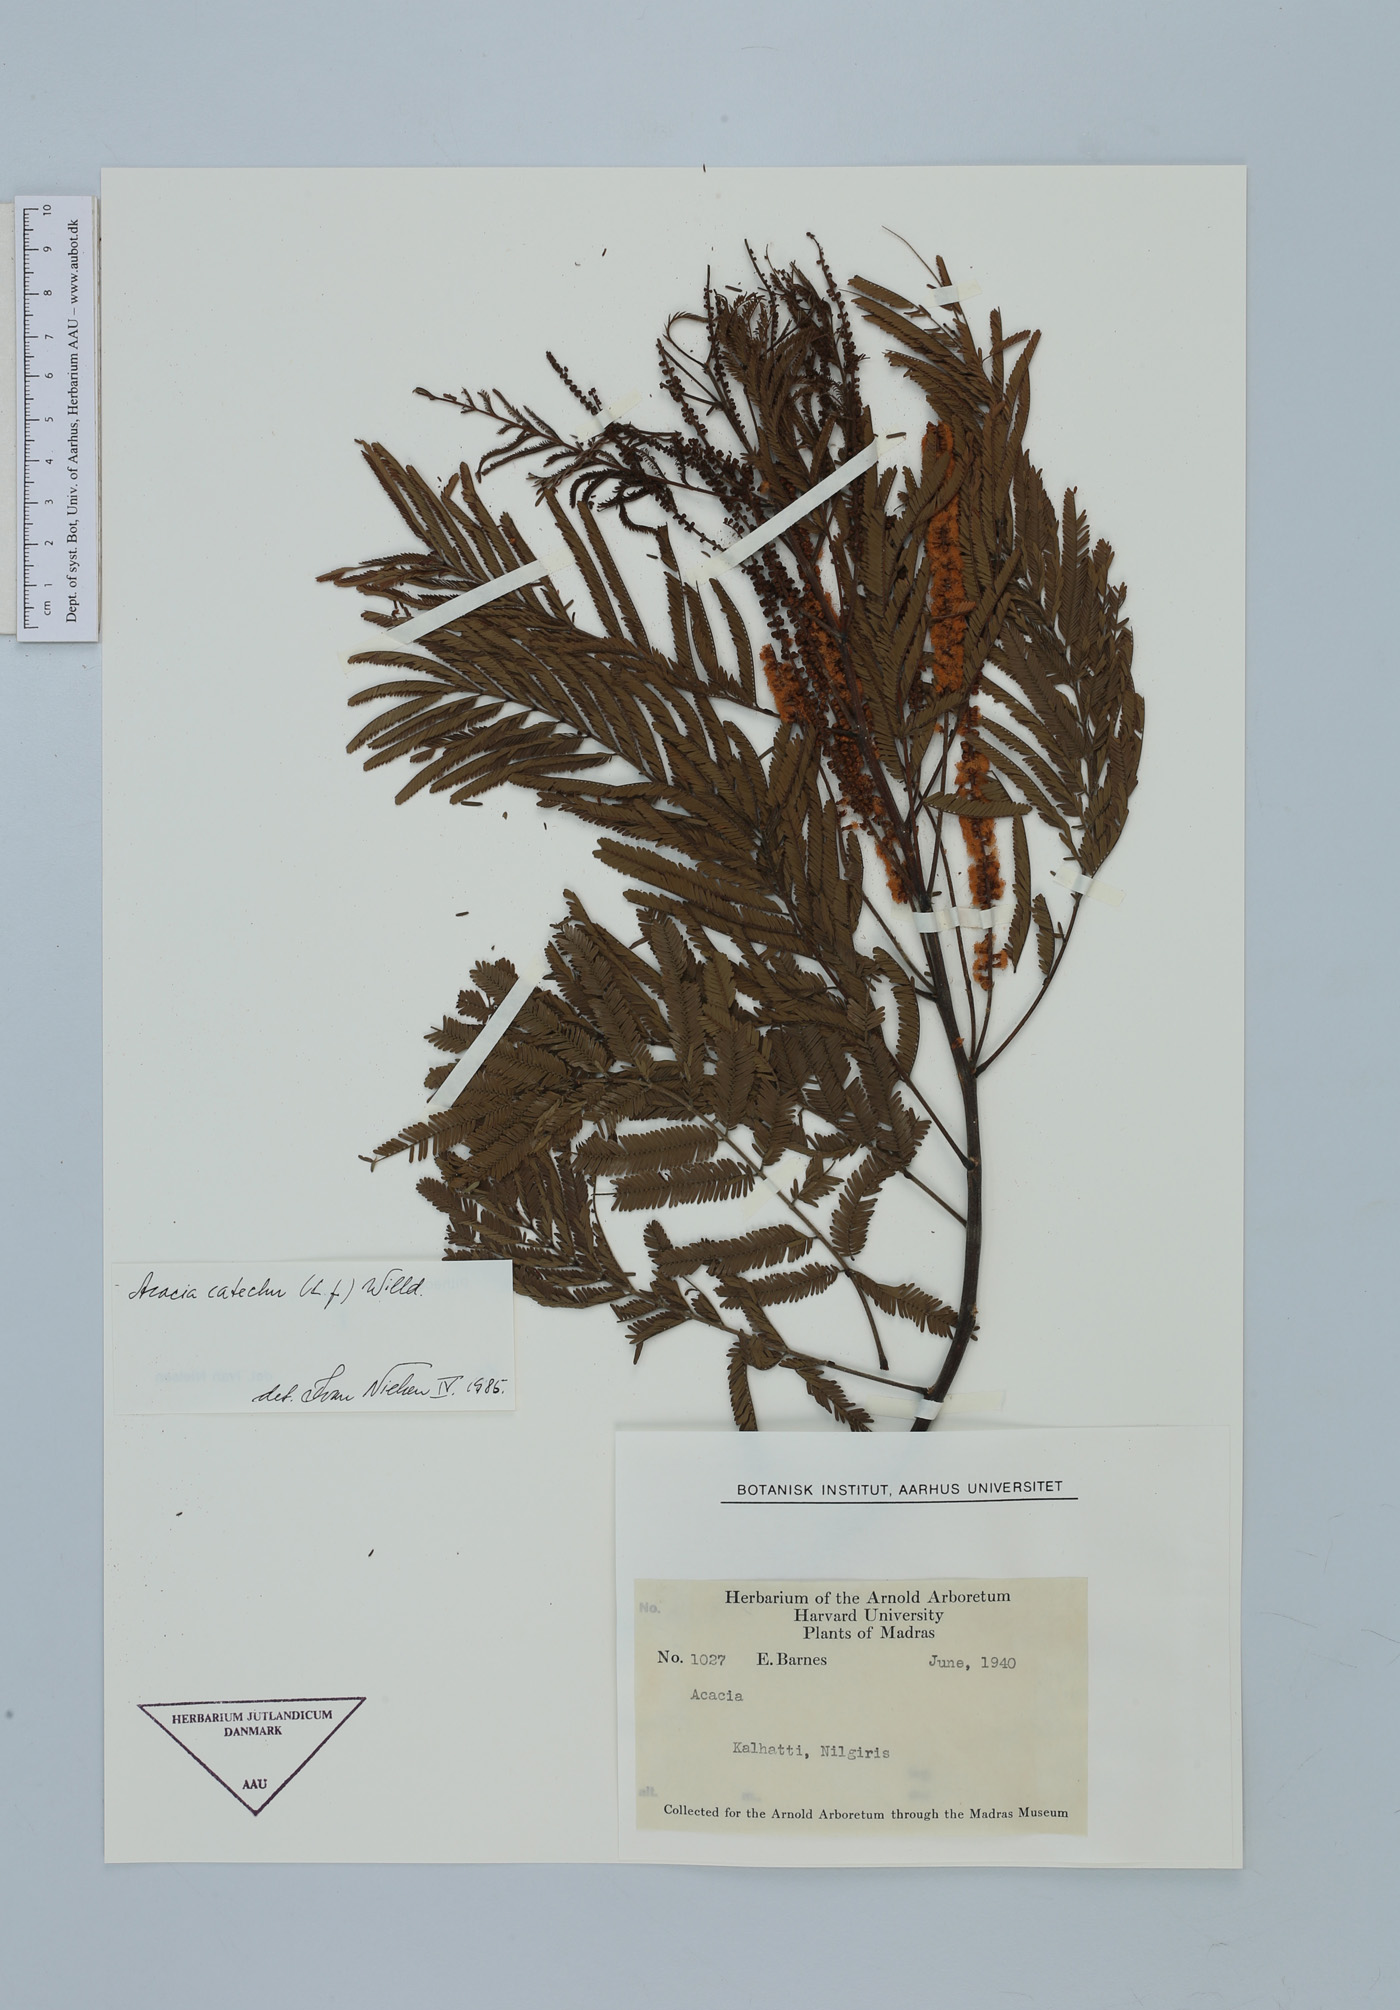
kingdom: Plantae
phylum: Tracheophyta
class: Magnoliopsida
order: Fabales
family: Fabaceae
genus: Senegalia
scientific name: Senegalia catechu
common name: Black cutch
